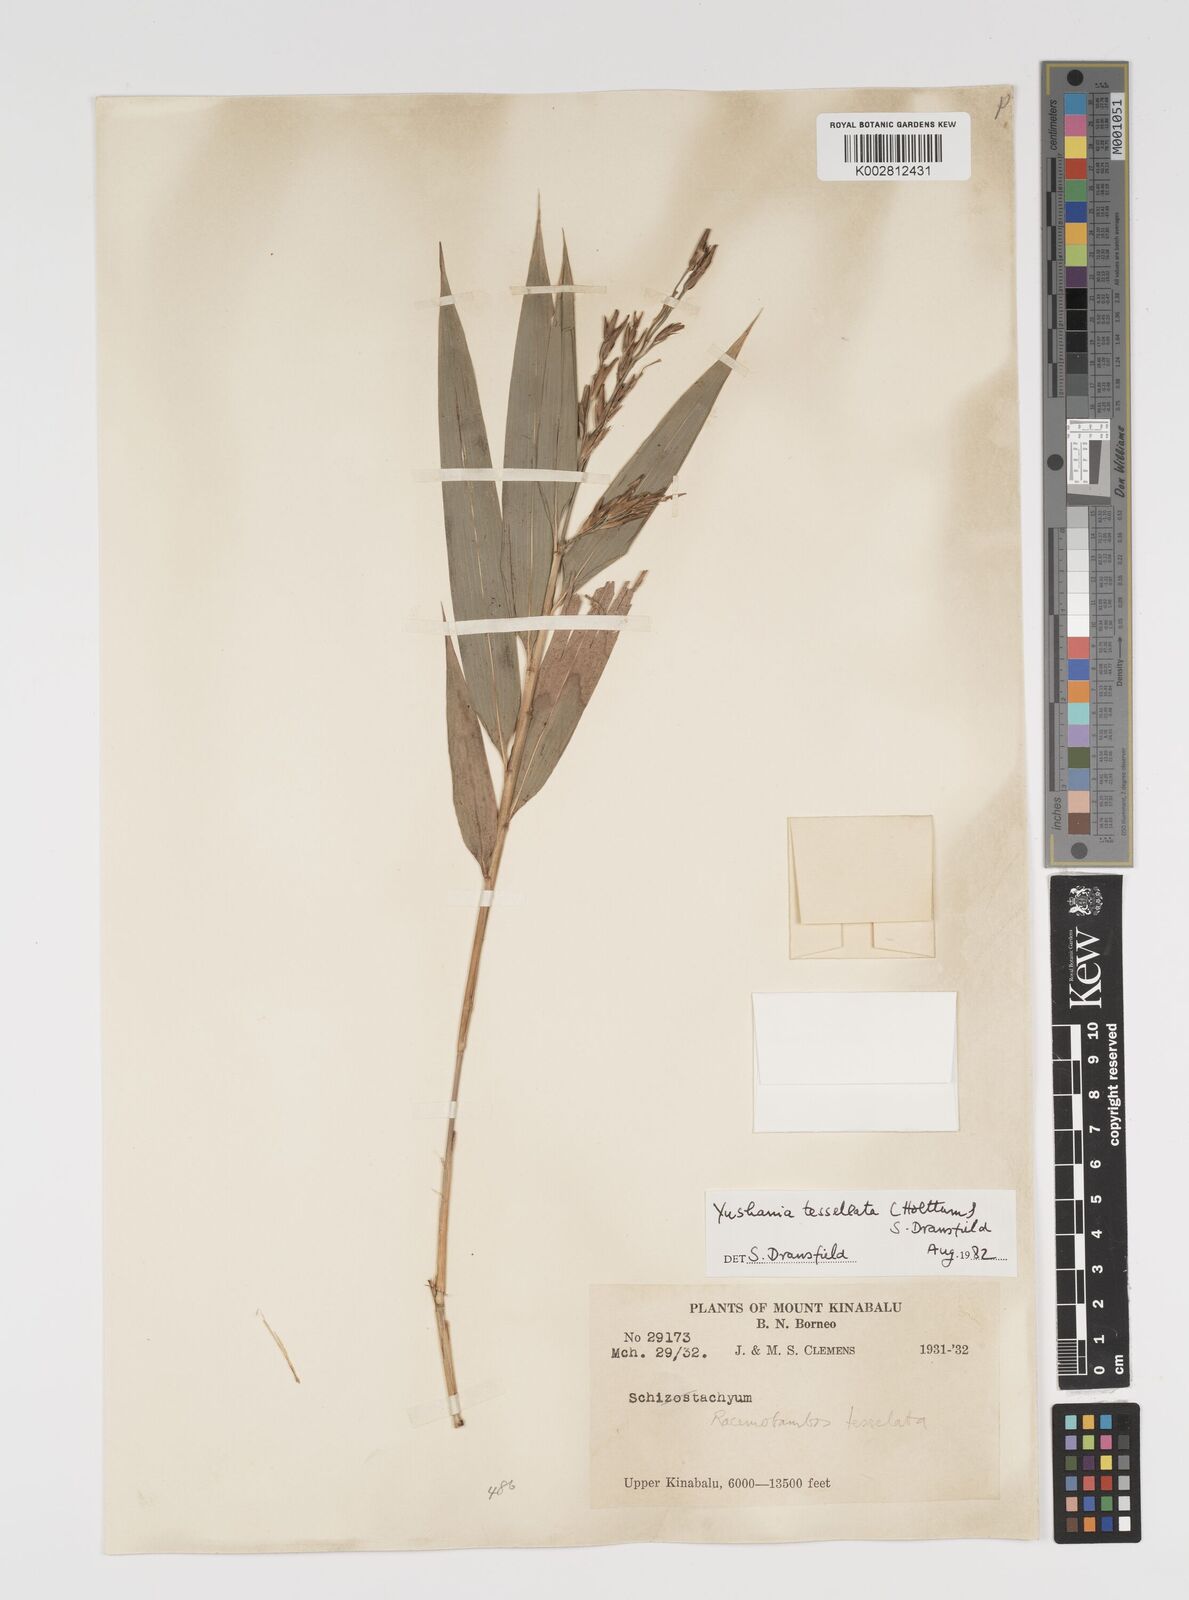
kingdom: Plantae
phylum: Tracheophyta
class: Liliopsida
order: Poales
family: Poaceae
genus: Yushania
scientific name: Yushania tessellata
